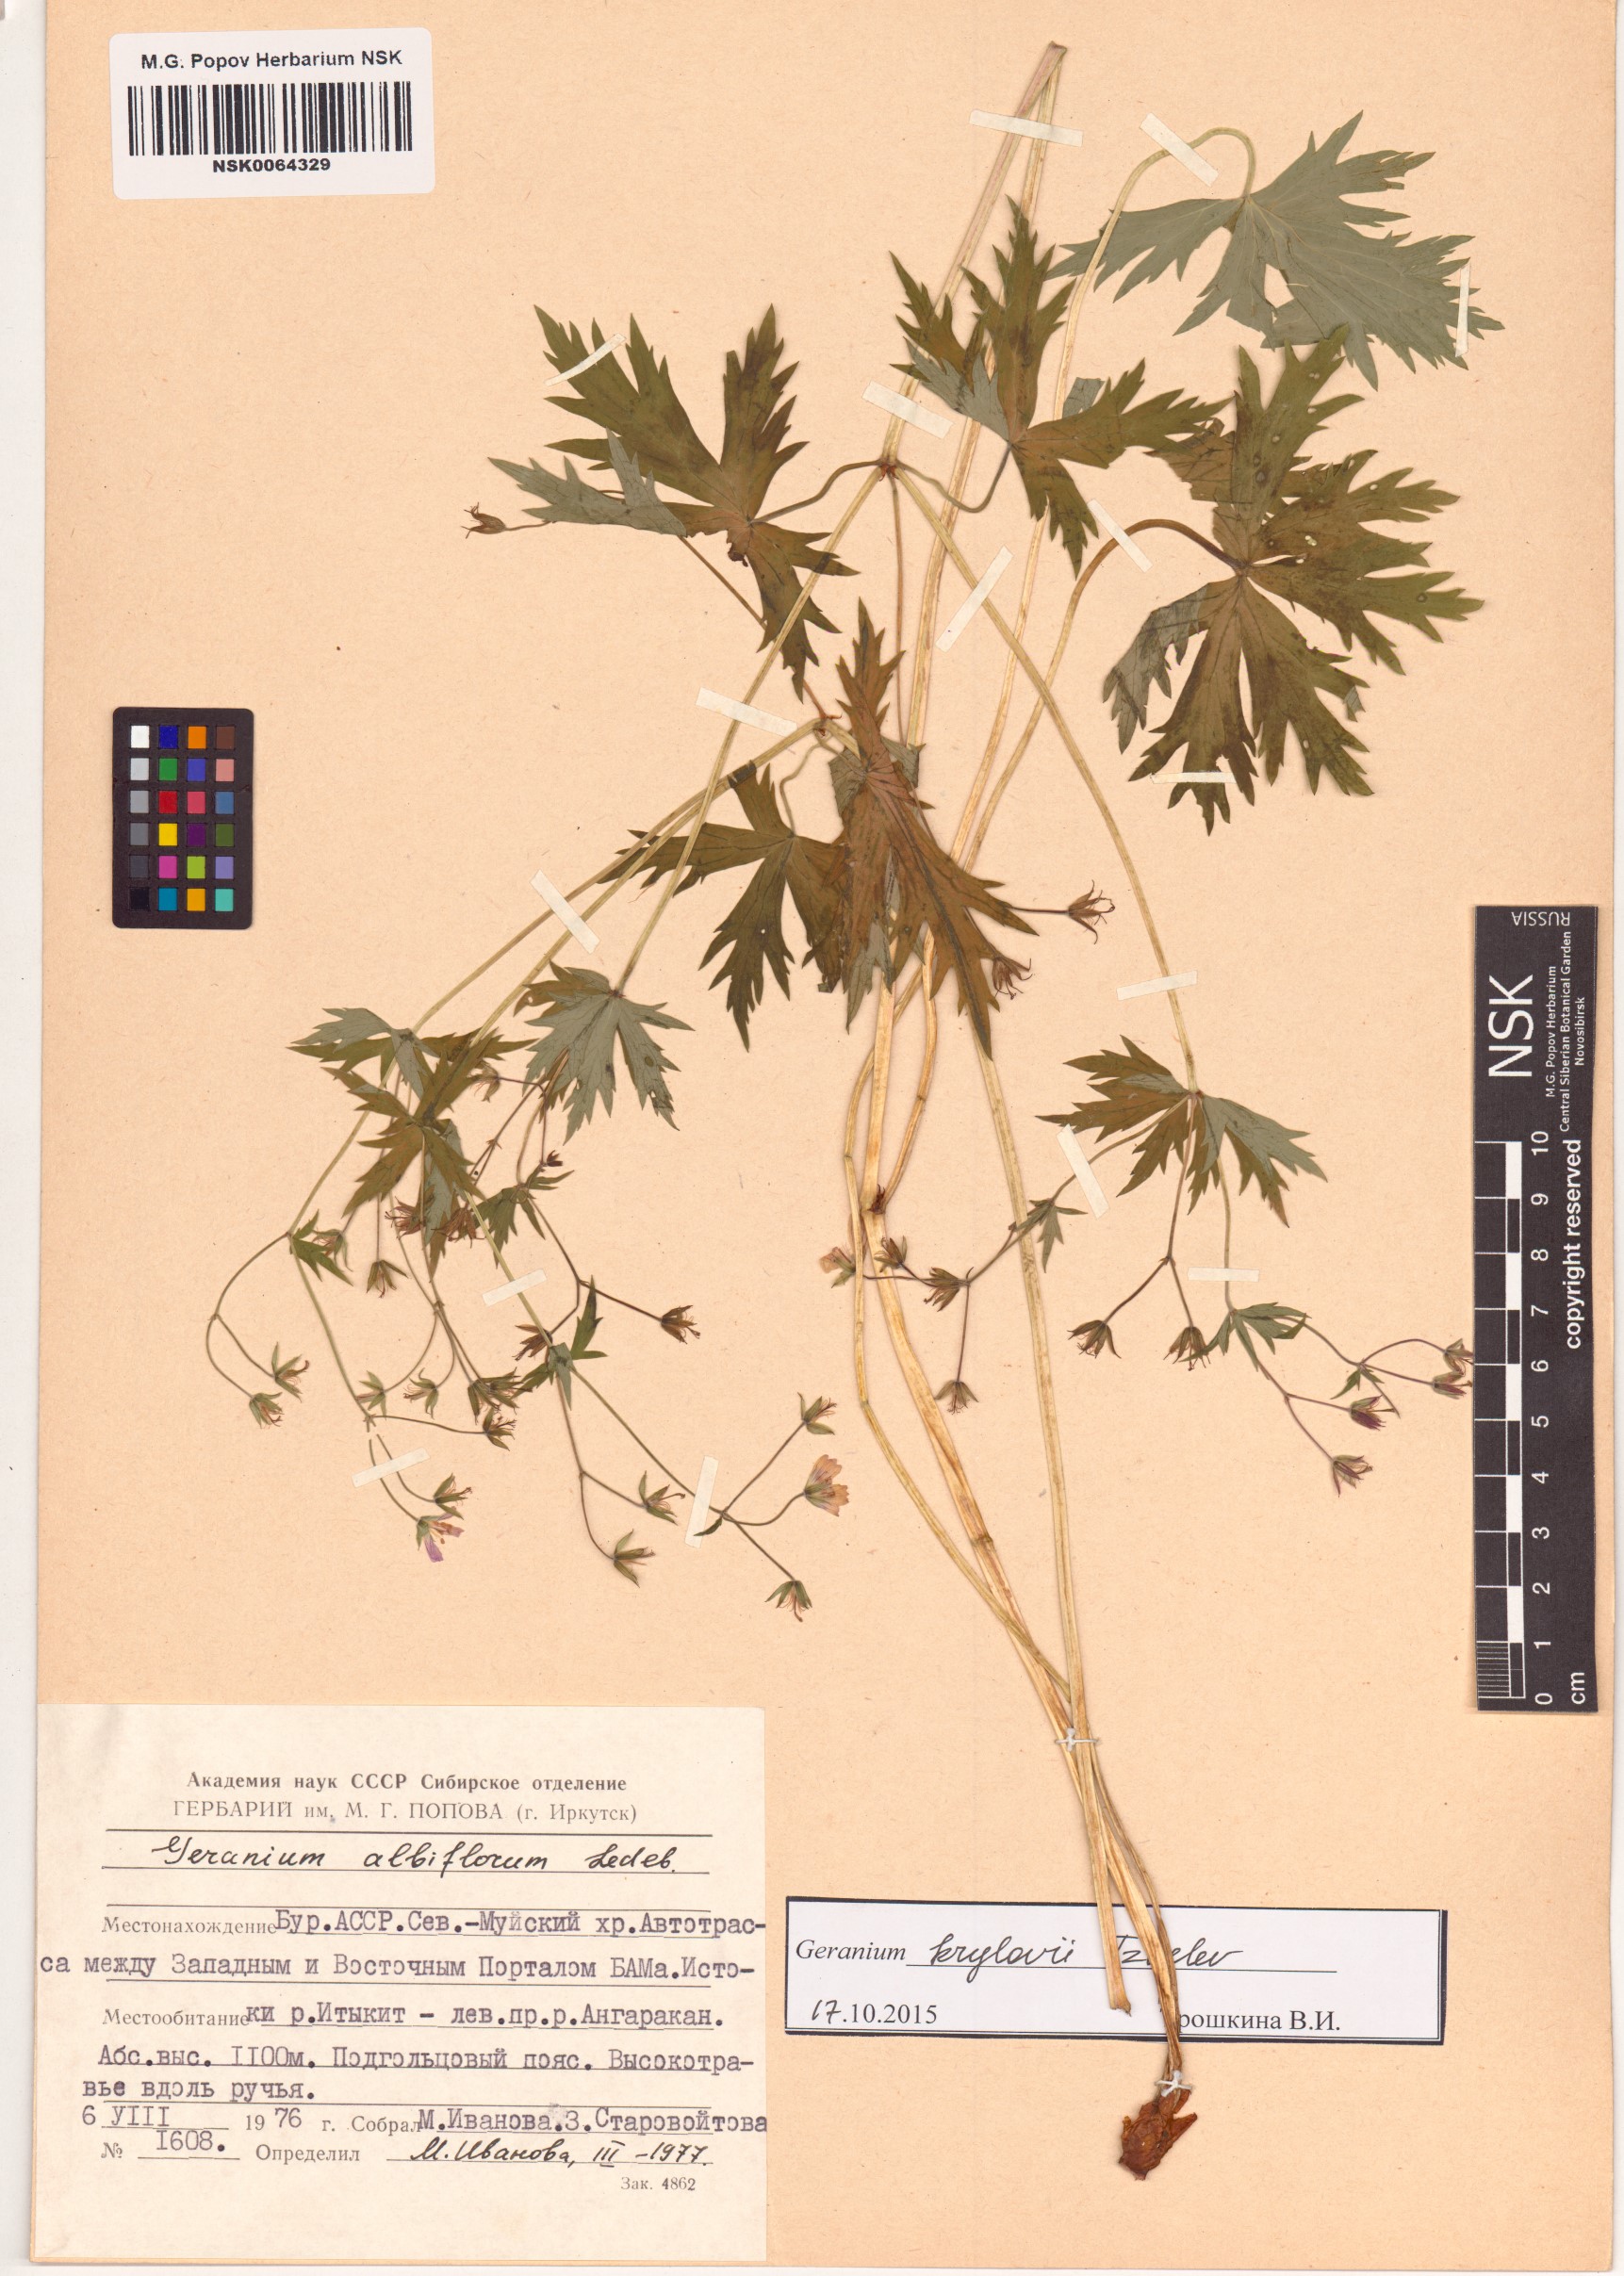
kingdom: Plantae
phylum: Tracheophyta
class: Magnoliopsida
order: Geraniales
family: Geraniaceae
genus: Geranium
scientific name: Geranium sylvaticum
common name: Wood crane's-bill
